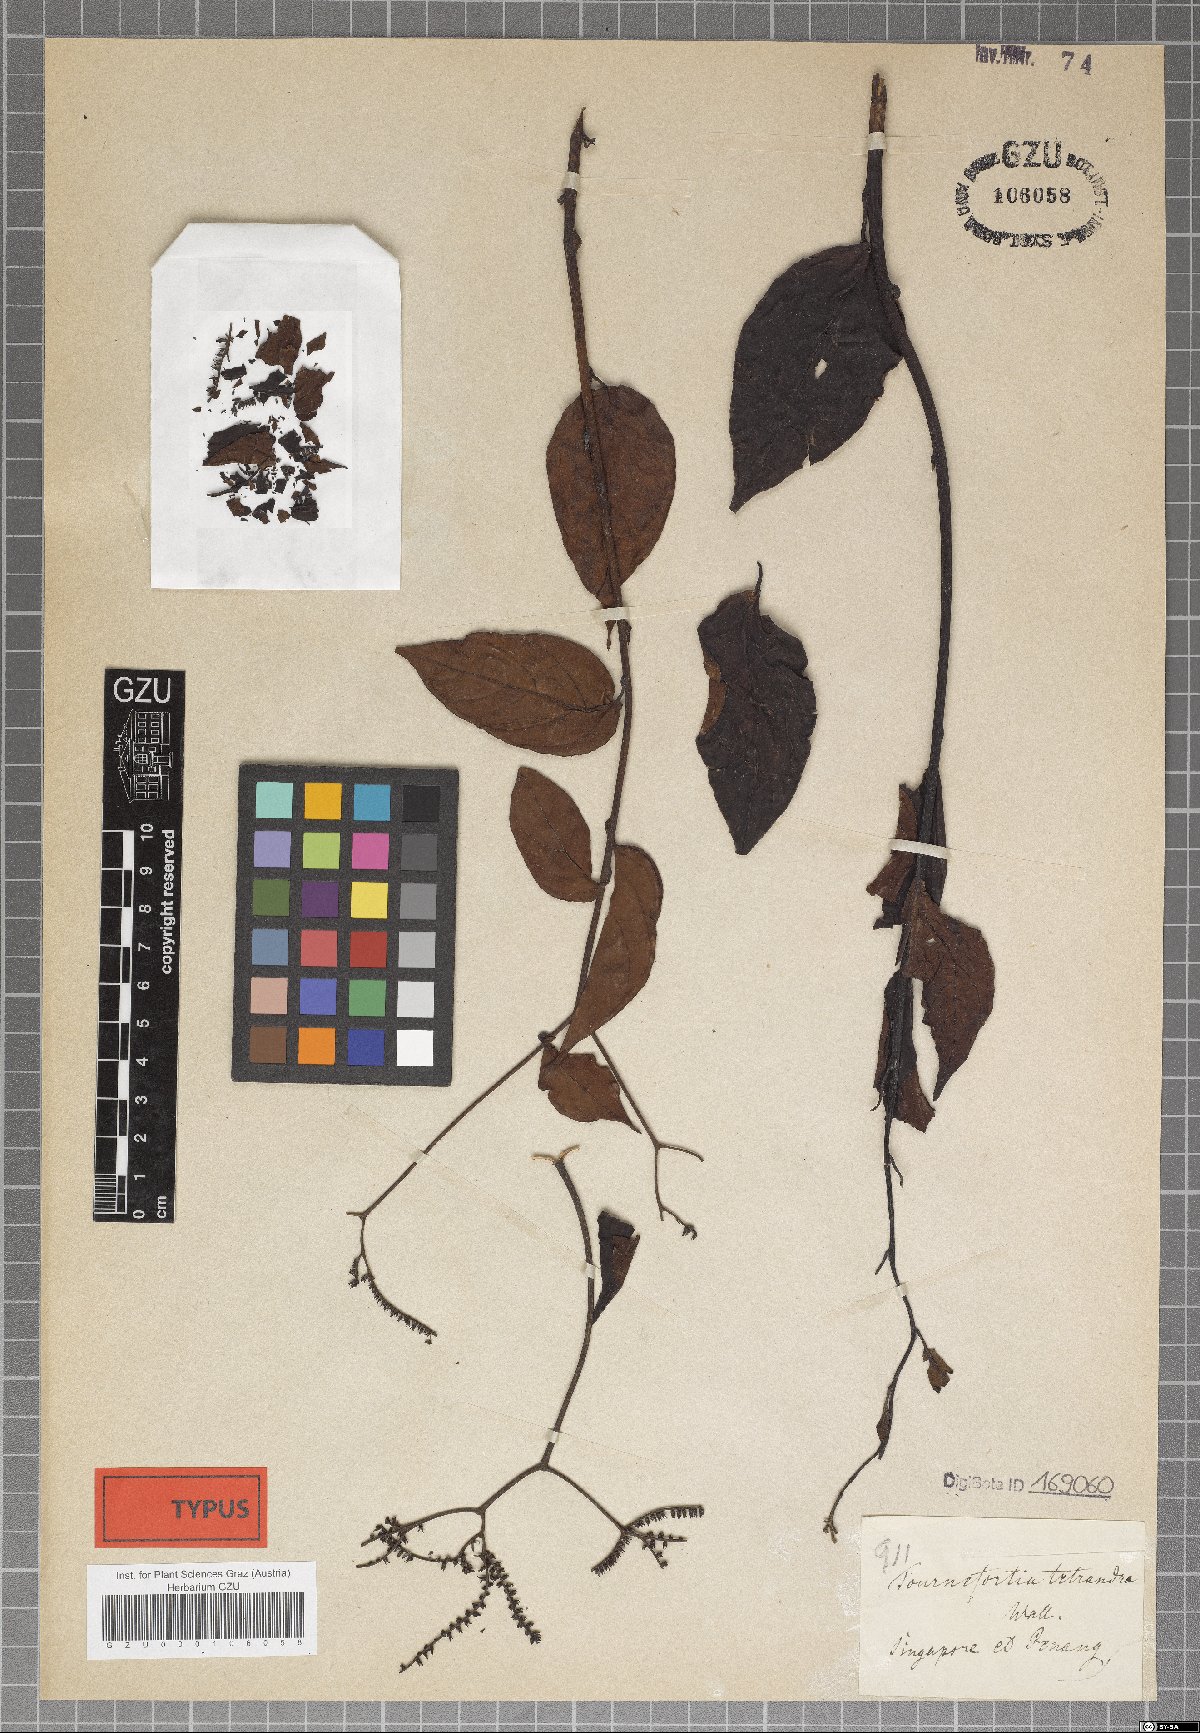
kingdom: Plantae
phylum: Tracheophyta
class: Magnoliopsida
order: Boraginales
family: Heliotropiaceae
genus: Heliotropium
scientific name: Heliotropium biblianum
